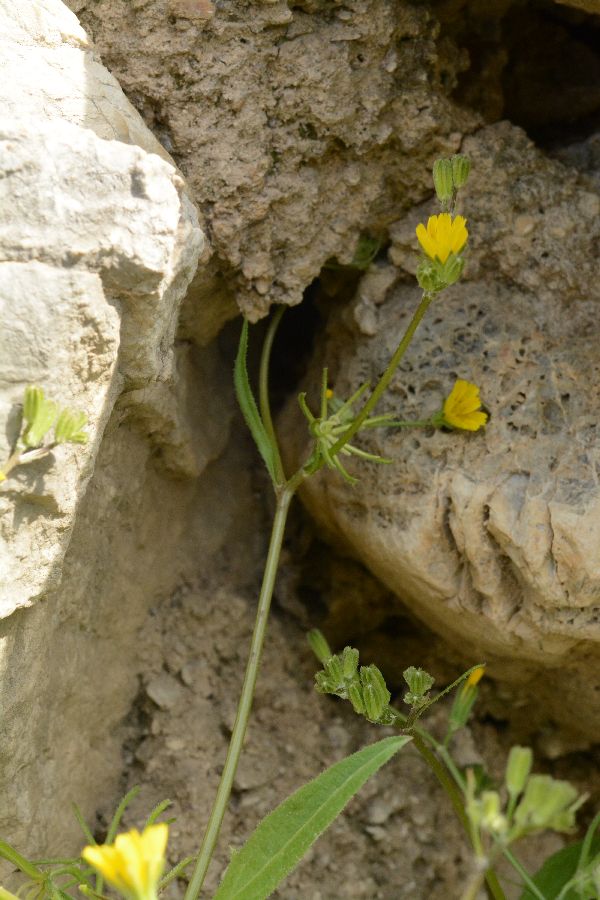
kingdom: Plantae
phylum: Tracheophyta
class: Magnoliopsida
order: Asterales
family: Asteraceae
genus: Rhagadiolus
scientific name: Rhagadiolus edulis
